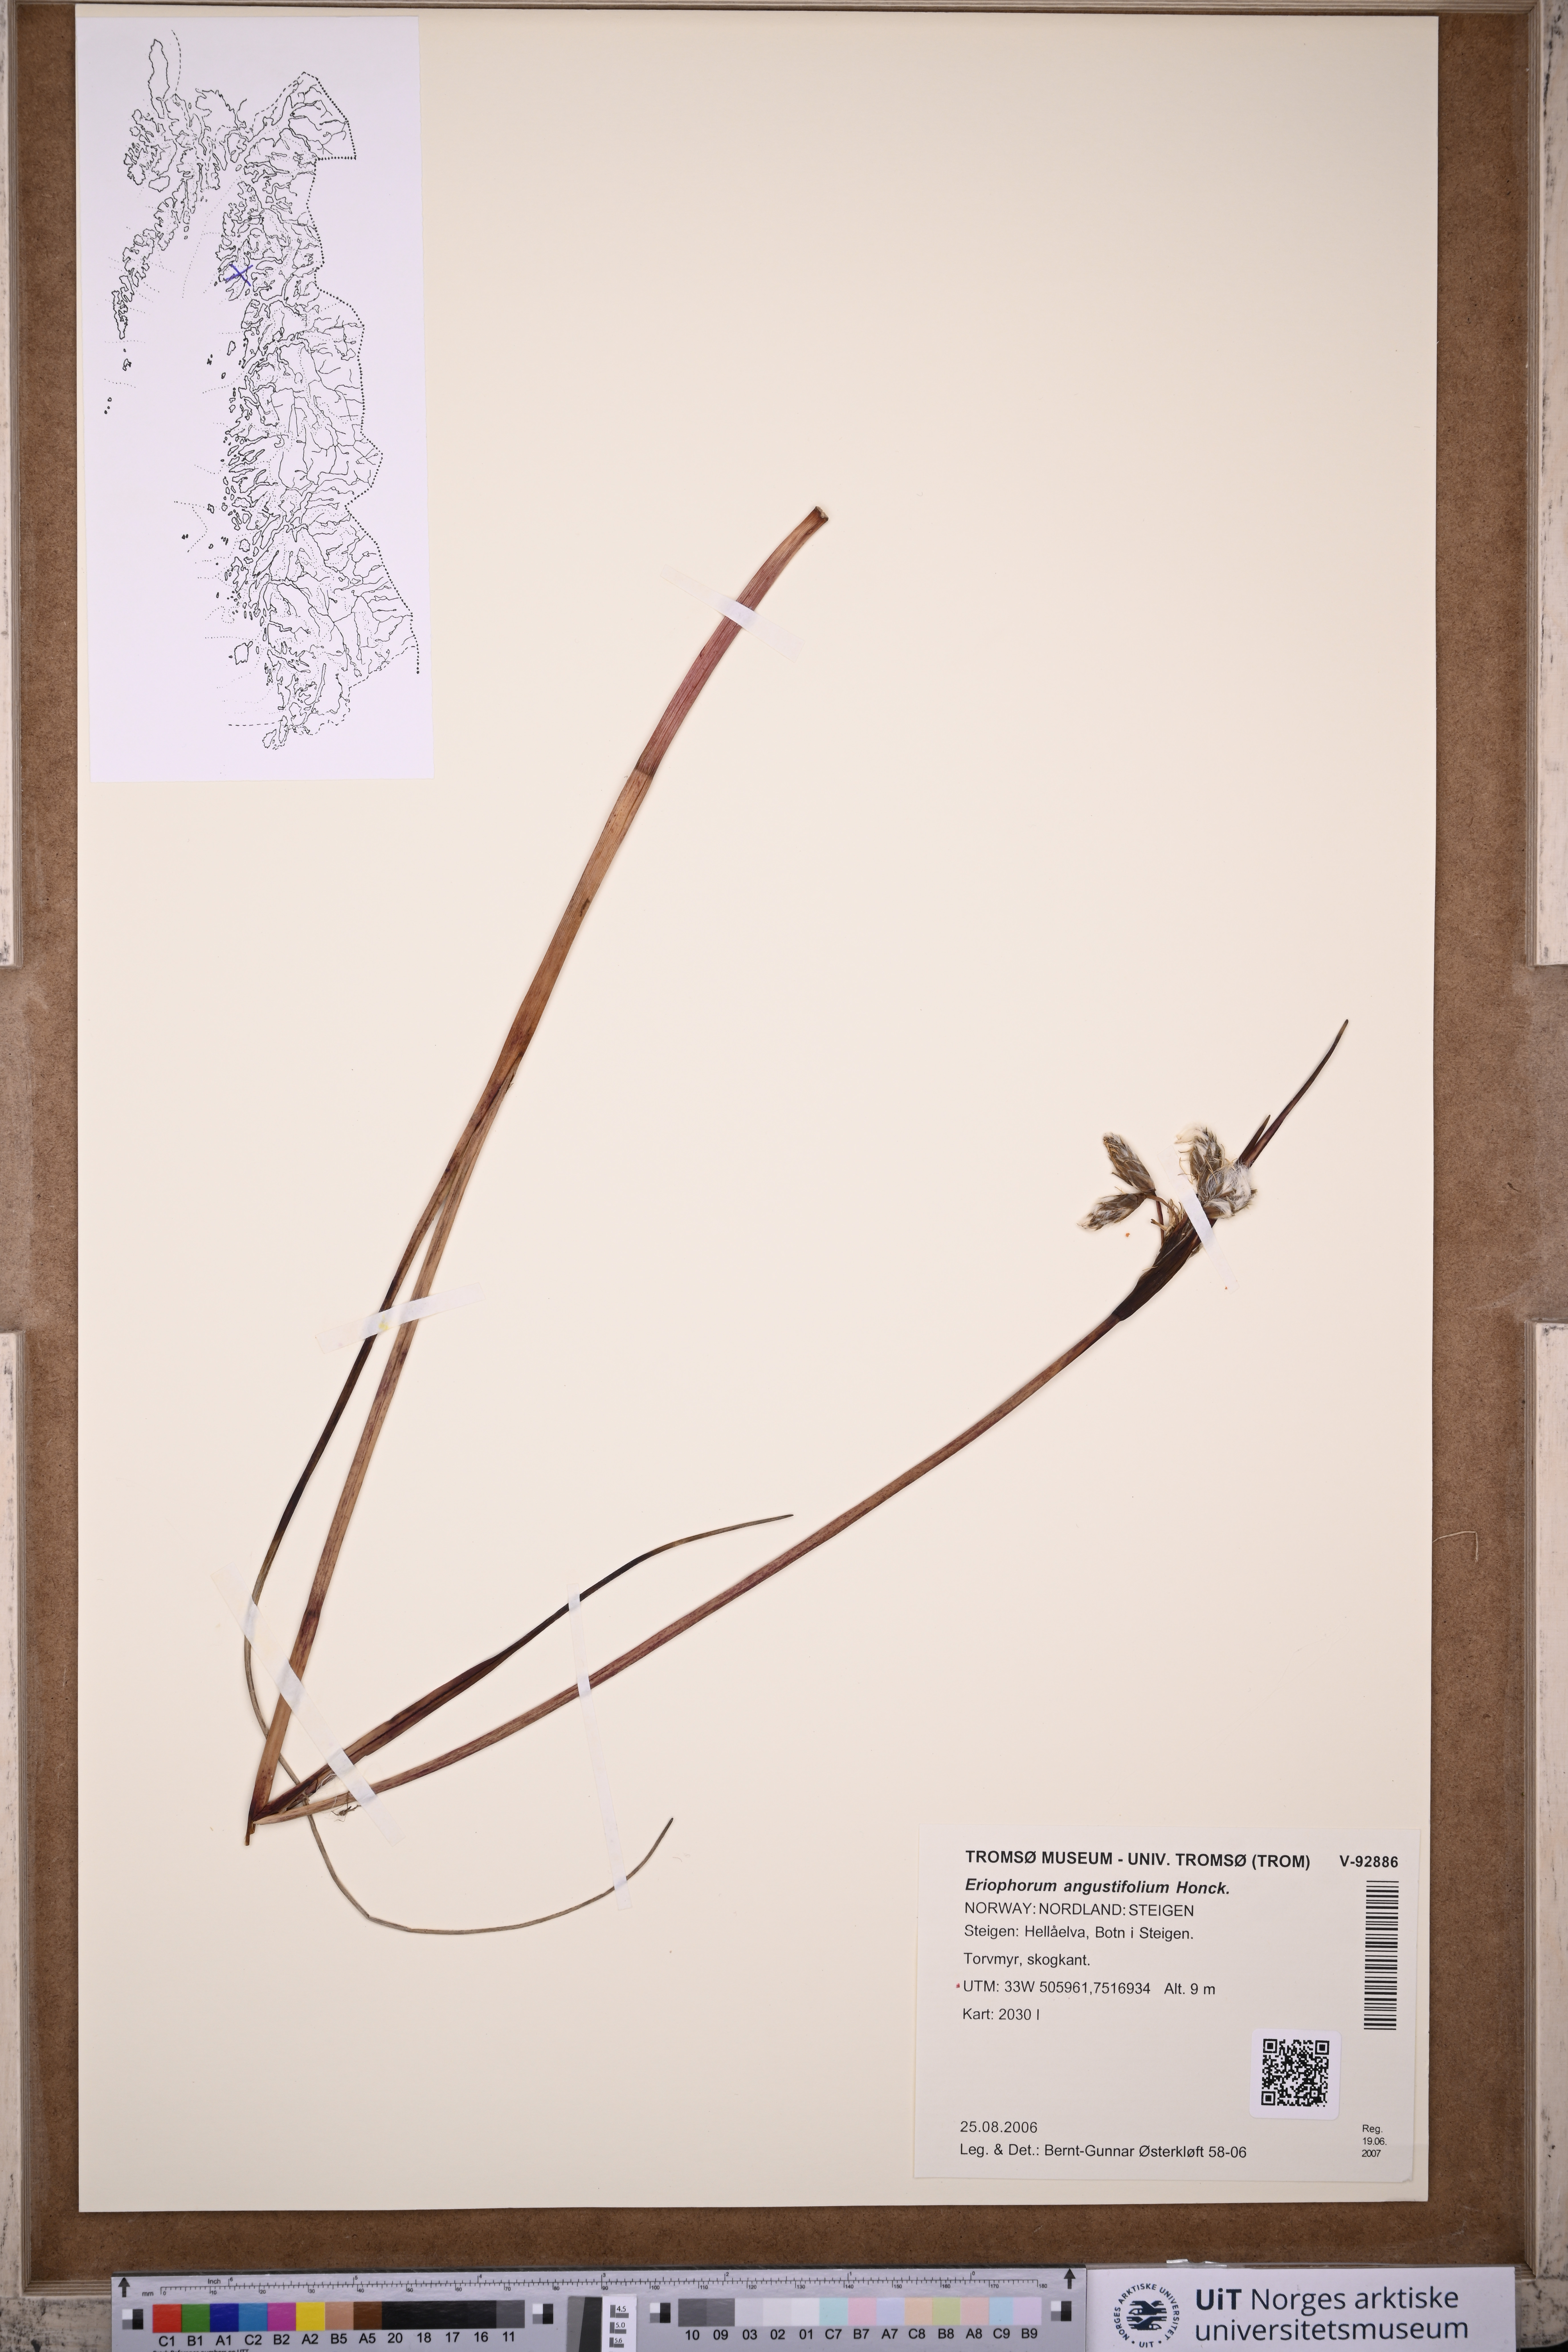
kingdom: Plantae
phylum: Tracheophyta
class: Liliopsida
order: Poales
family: Cyperaceae
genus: Eriophorum
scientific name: Eriophorum angustifolium
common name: Common cottongrass
